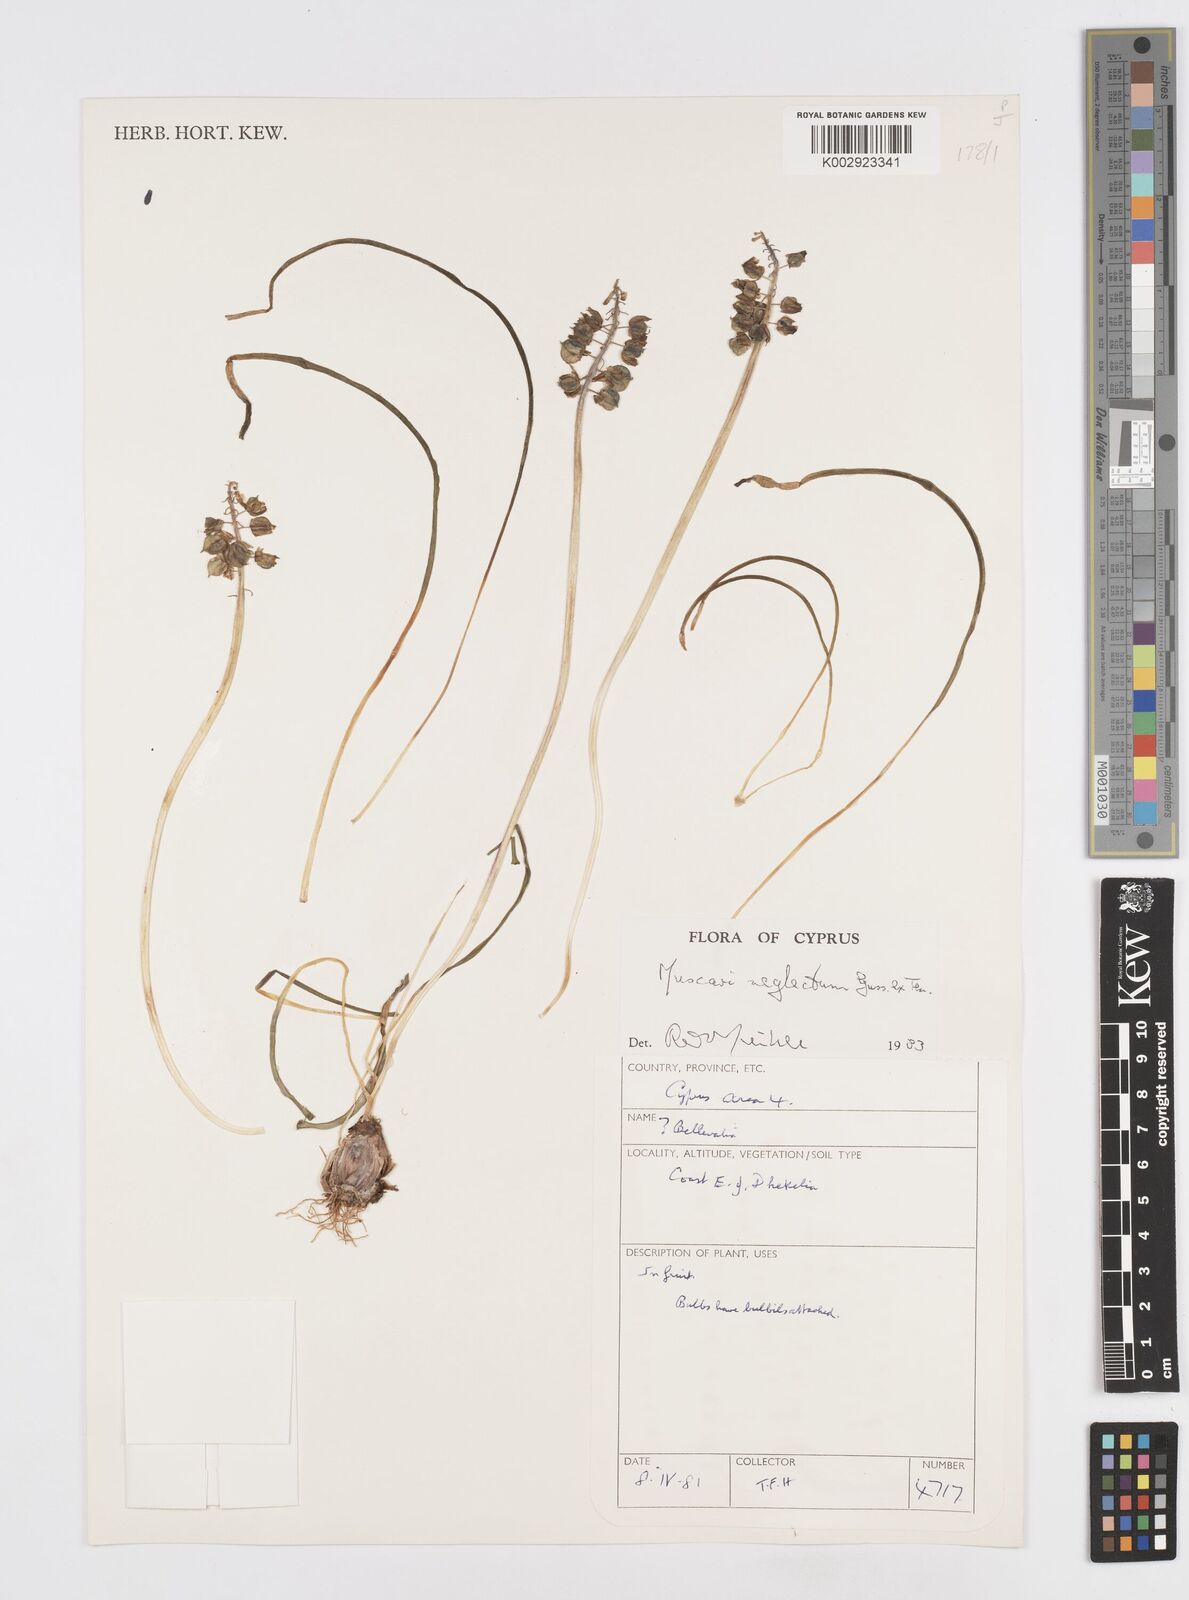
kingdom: Plantae
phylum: Tracheophyta
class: Liliopsida
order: Asparagales
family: Asparagaceae
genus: Muscari
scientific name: Muscari neglectum
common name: Grape-hyacinth
